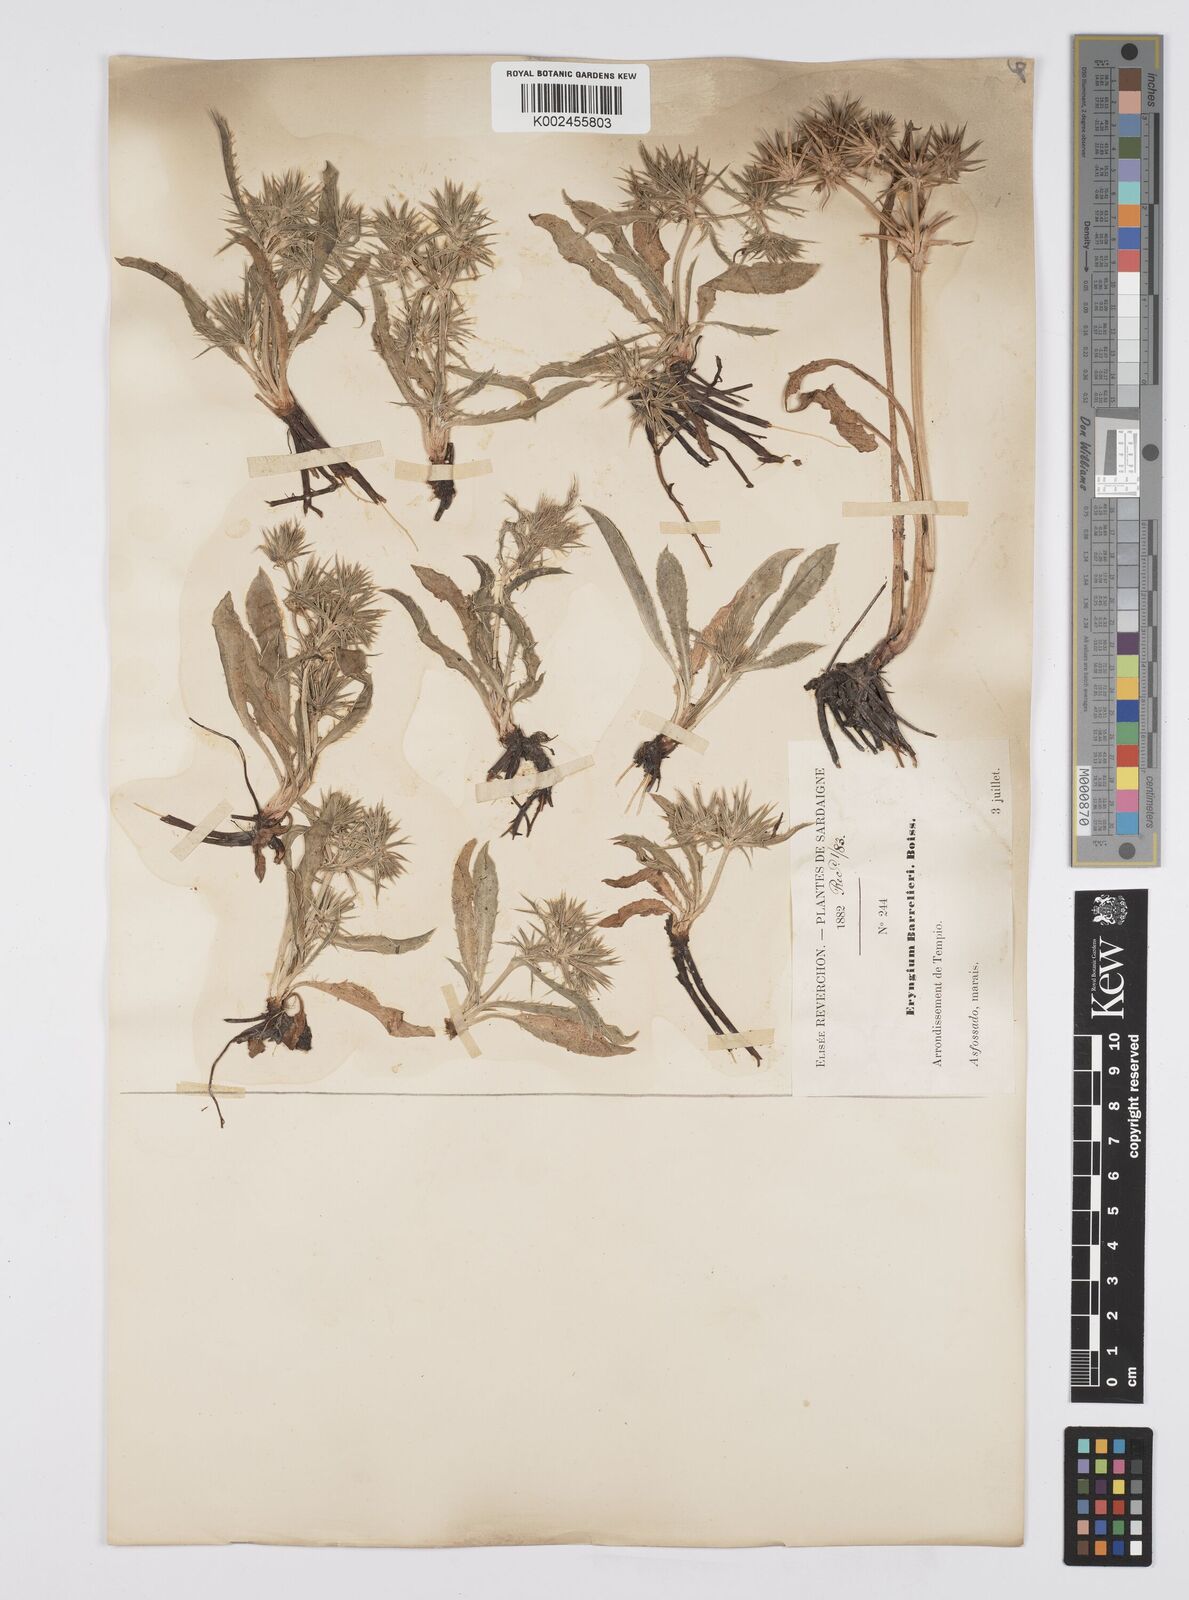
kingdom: Plantae
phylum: Tracheophyta
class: Magnoliopsida
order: Apiales
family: Apiaceae
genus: Eryngium
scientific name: Eryngium pusillum
